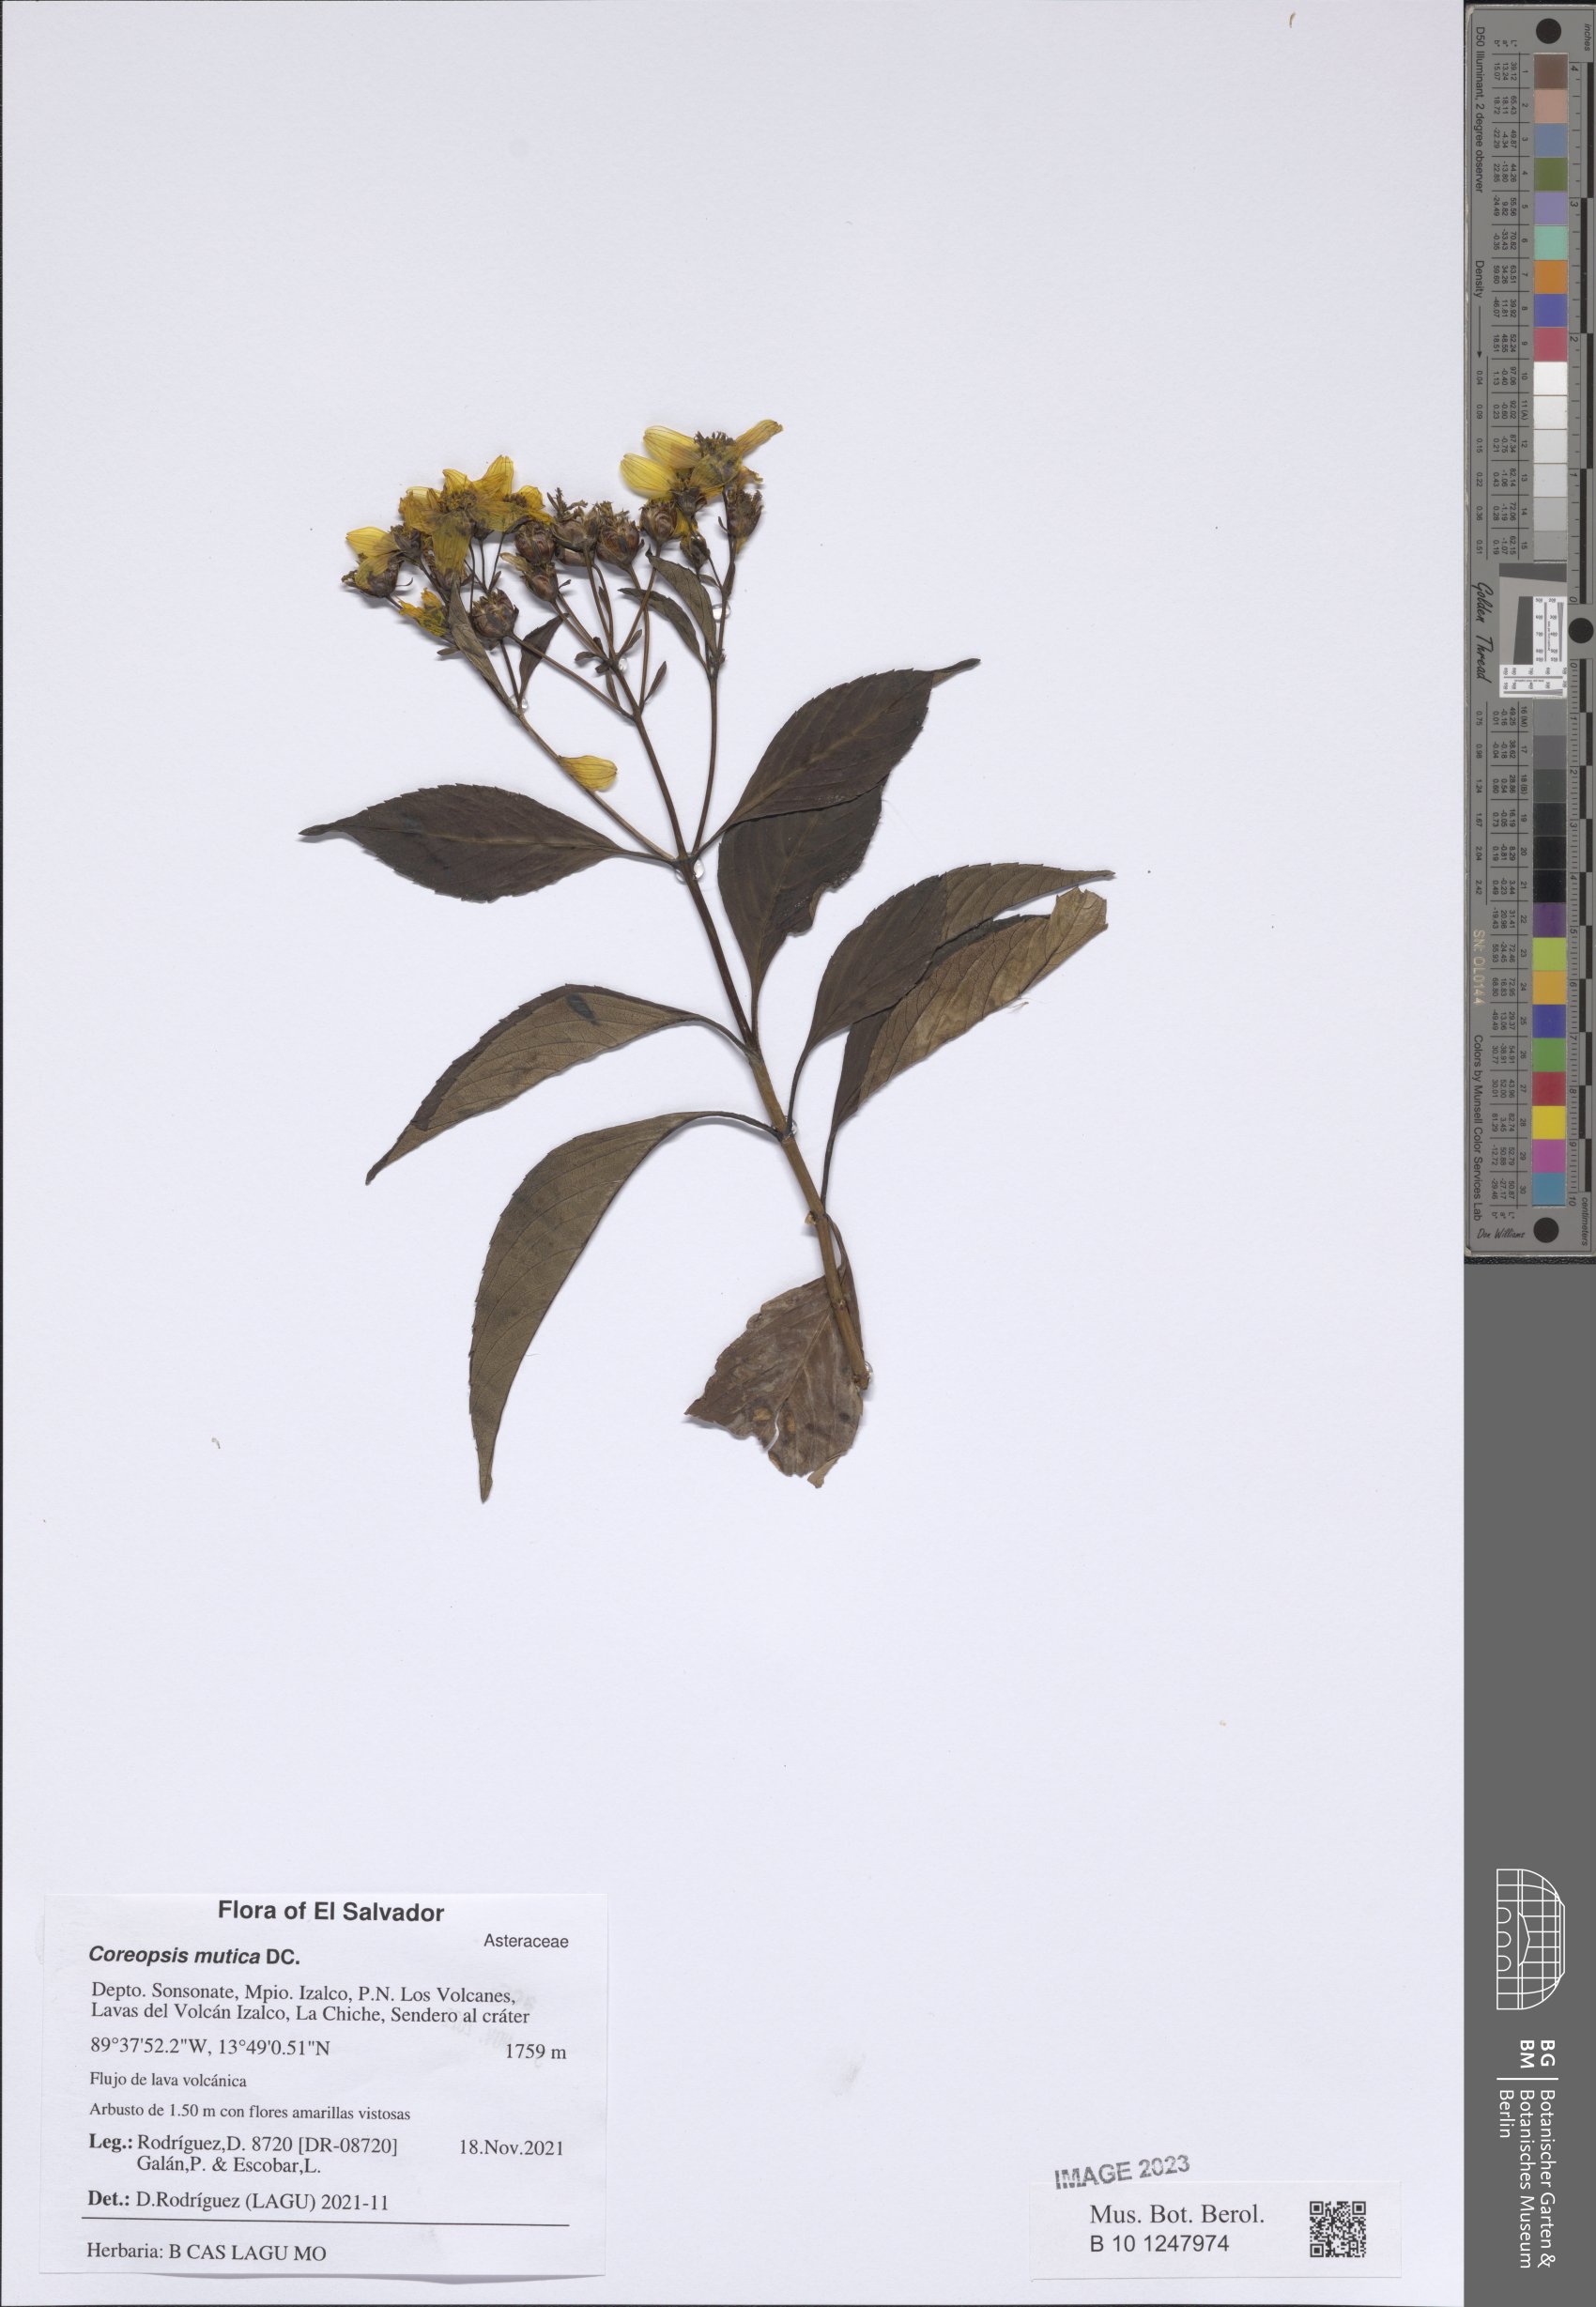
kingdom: Plantae
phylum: Tracheophyta
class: Magnoliopsida
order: Asterales
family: Asteraceae
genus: Electranthera
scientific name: Electranthera mutica
